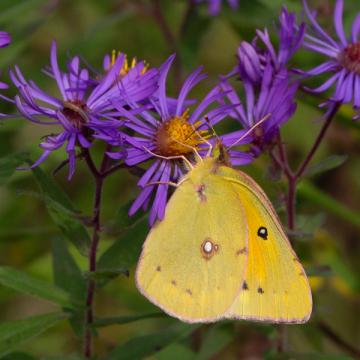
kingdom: Animalia
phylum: Arthropoda
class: Insecta
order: Lepidoptera
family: Pieridae
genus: Colias
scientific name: Colias eurytheme
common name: Orange Sulphur
